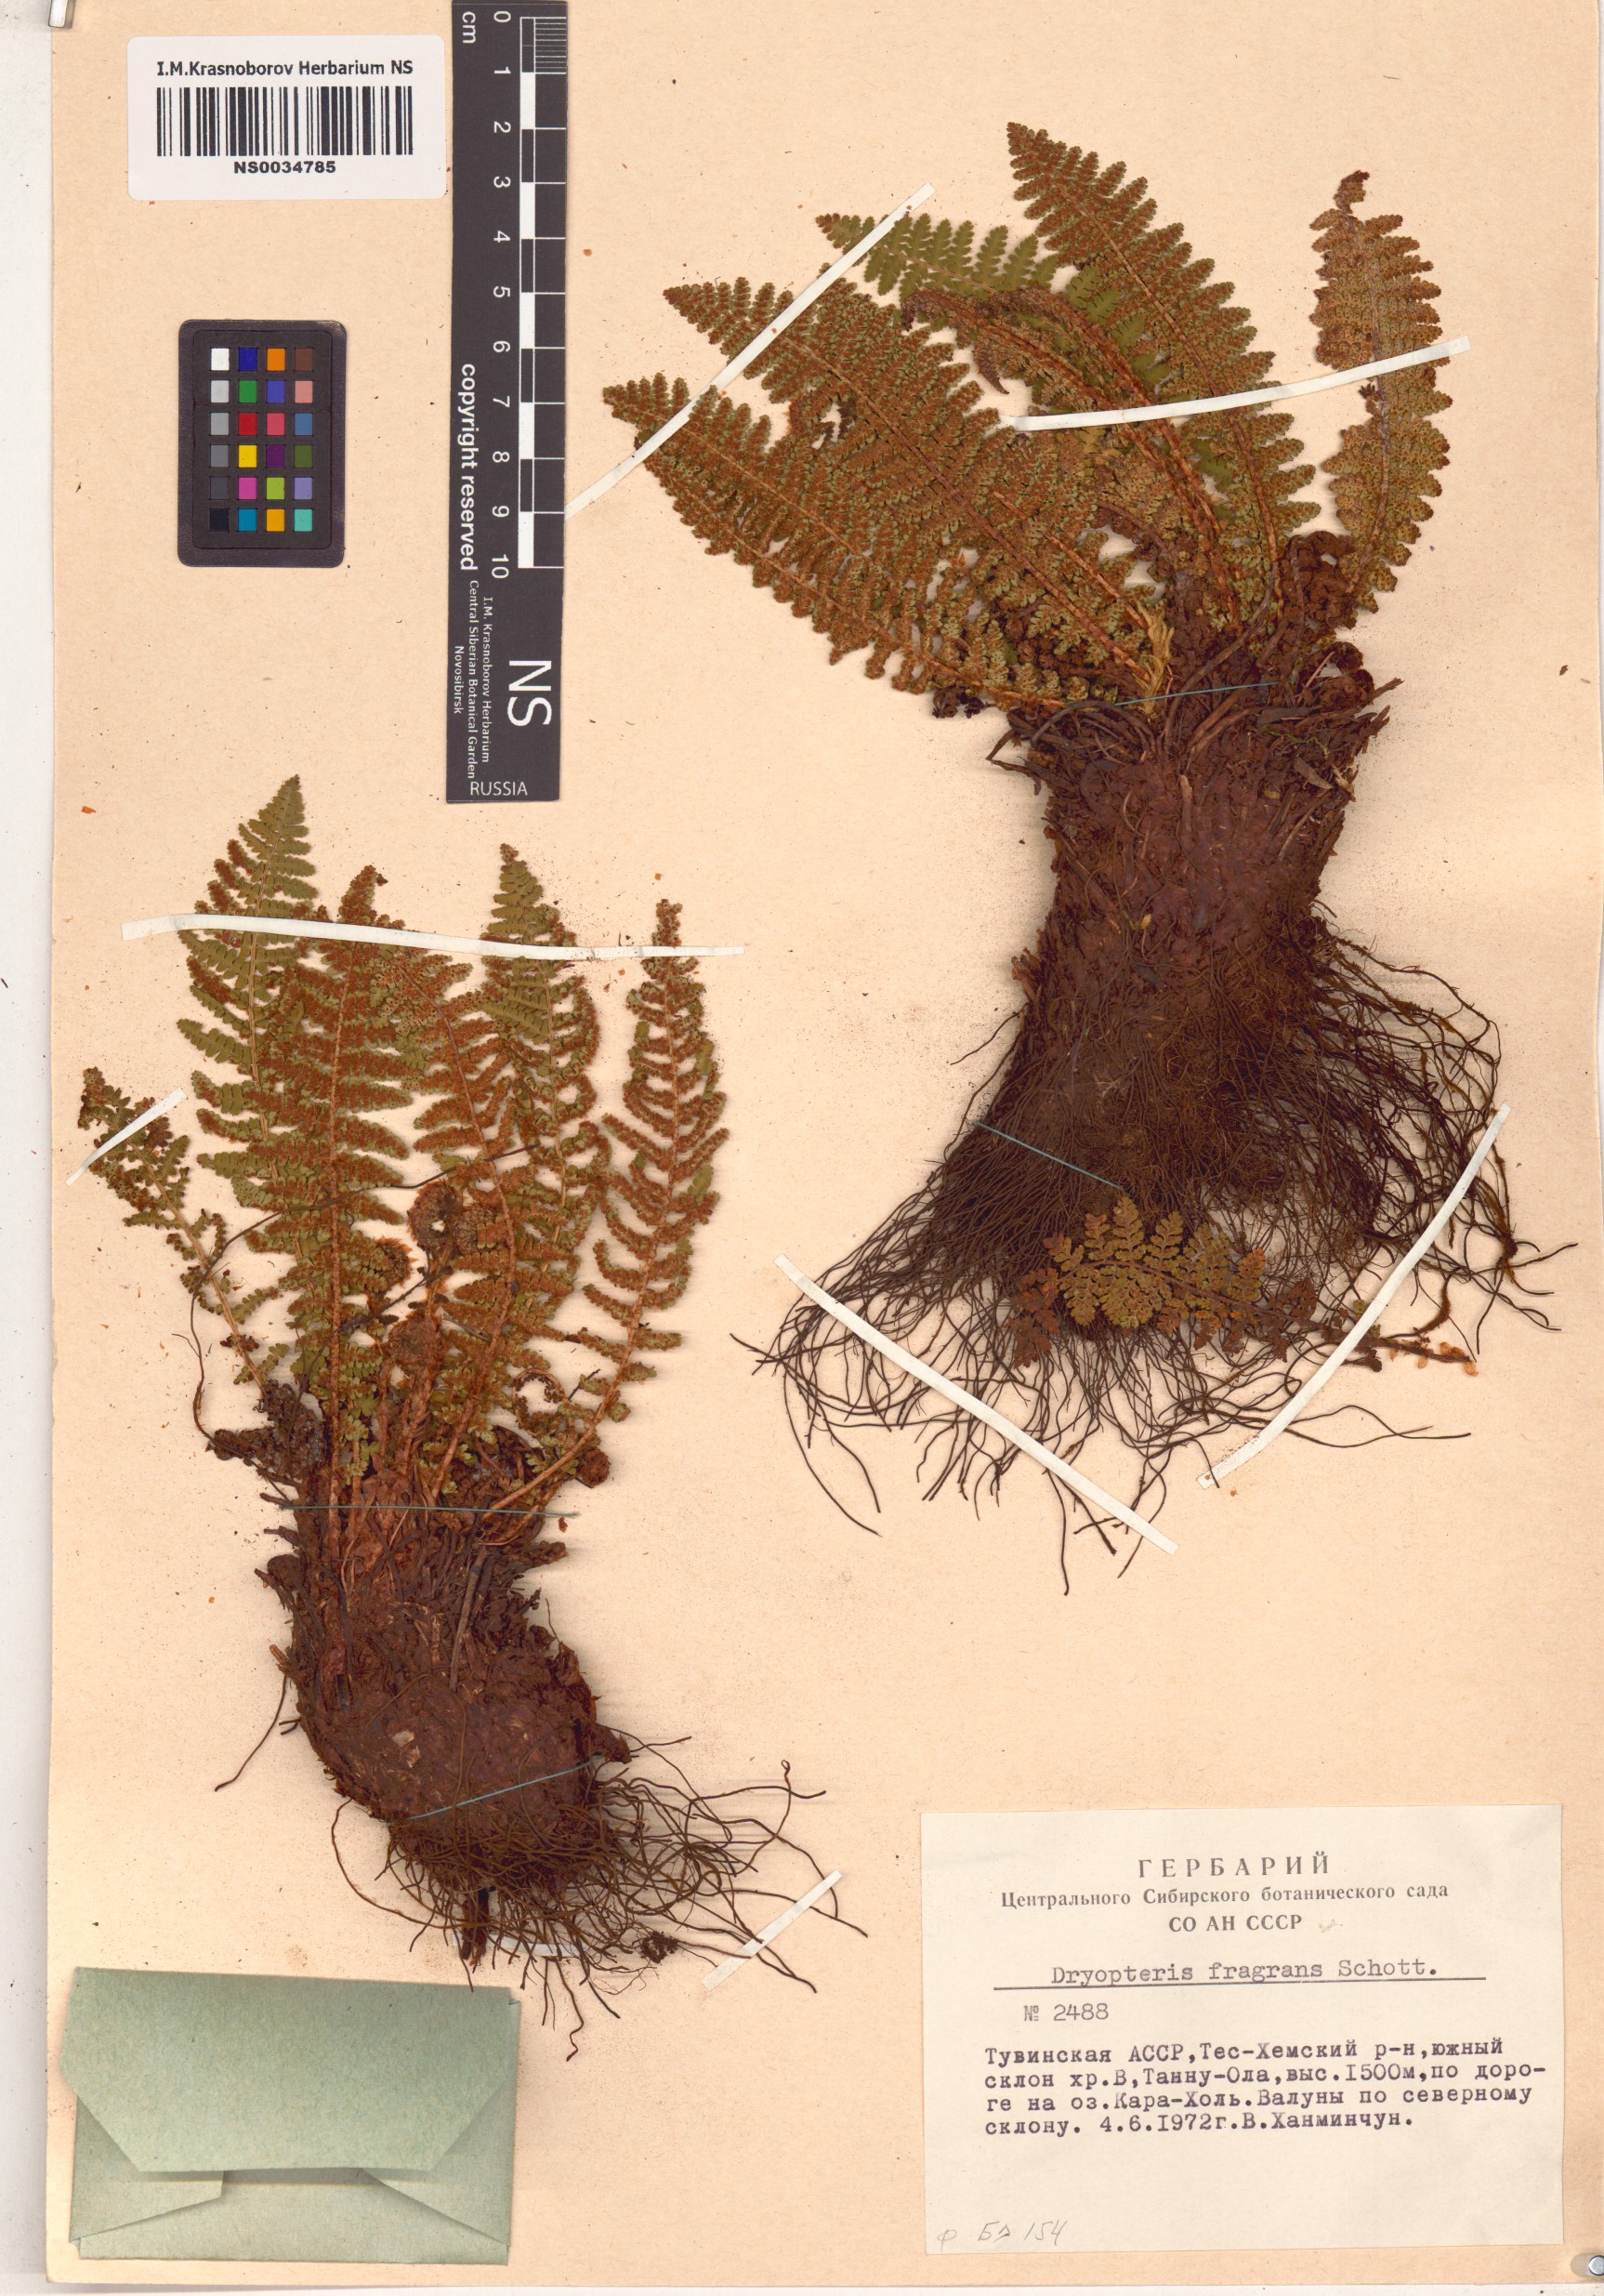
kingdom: Plantae
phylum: Tracheophyta
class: Polypodiopsida
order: Polypodiales
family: Dryopteridaceae
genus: Dryopteris
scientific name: Dryopteris fragrans
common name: Fragrant wood fern
